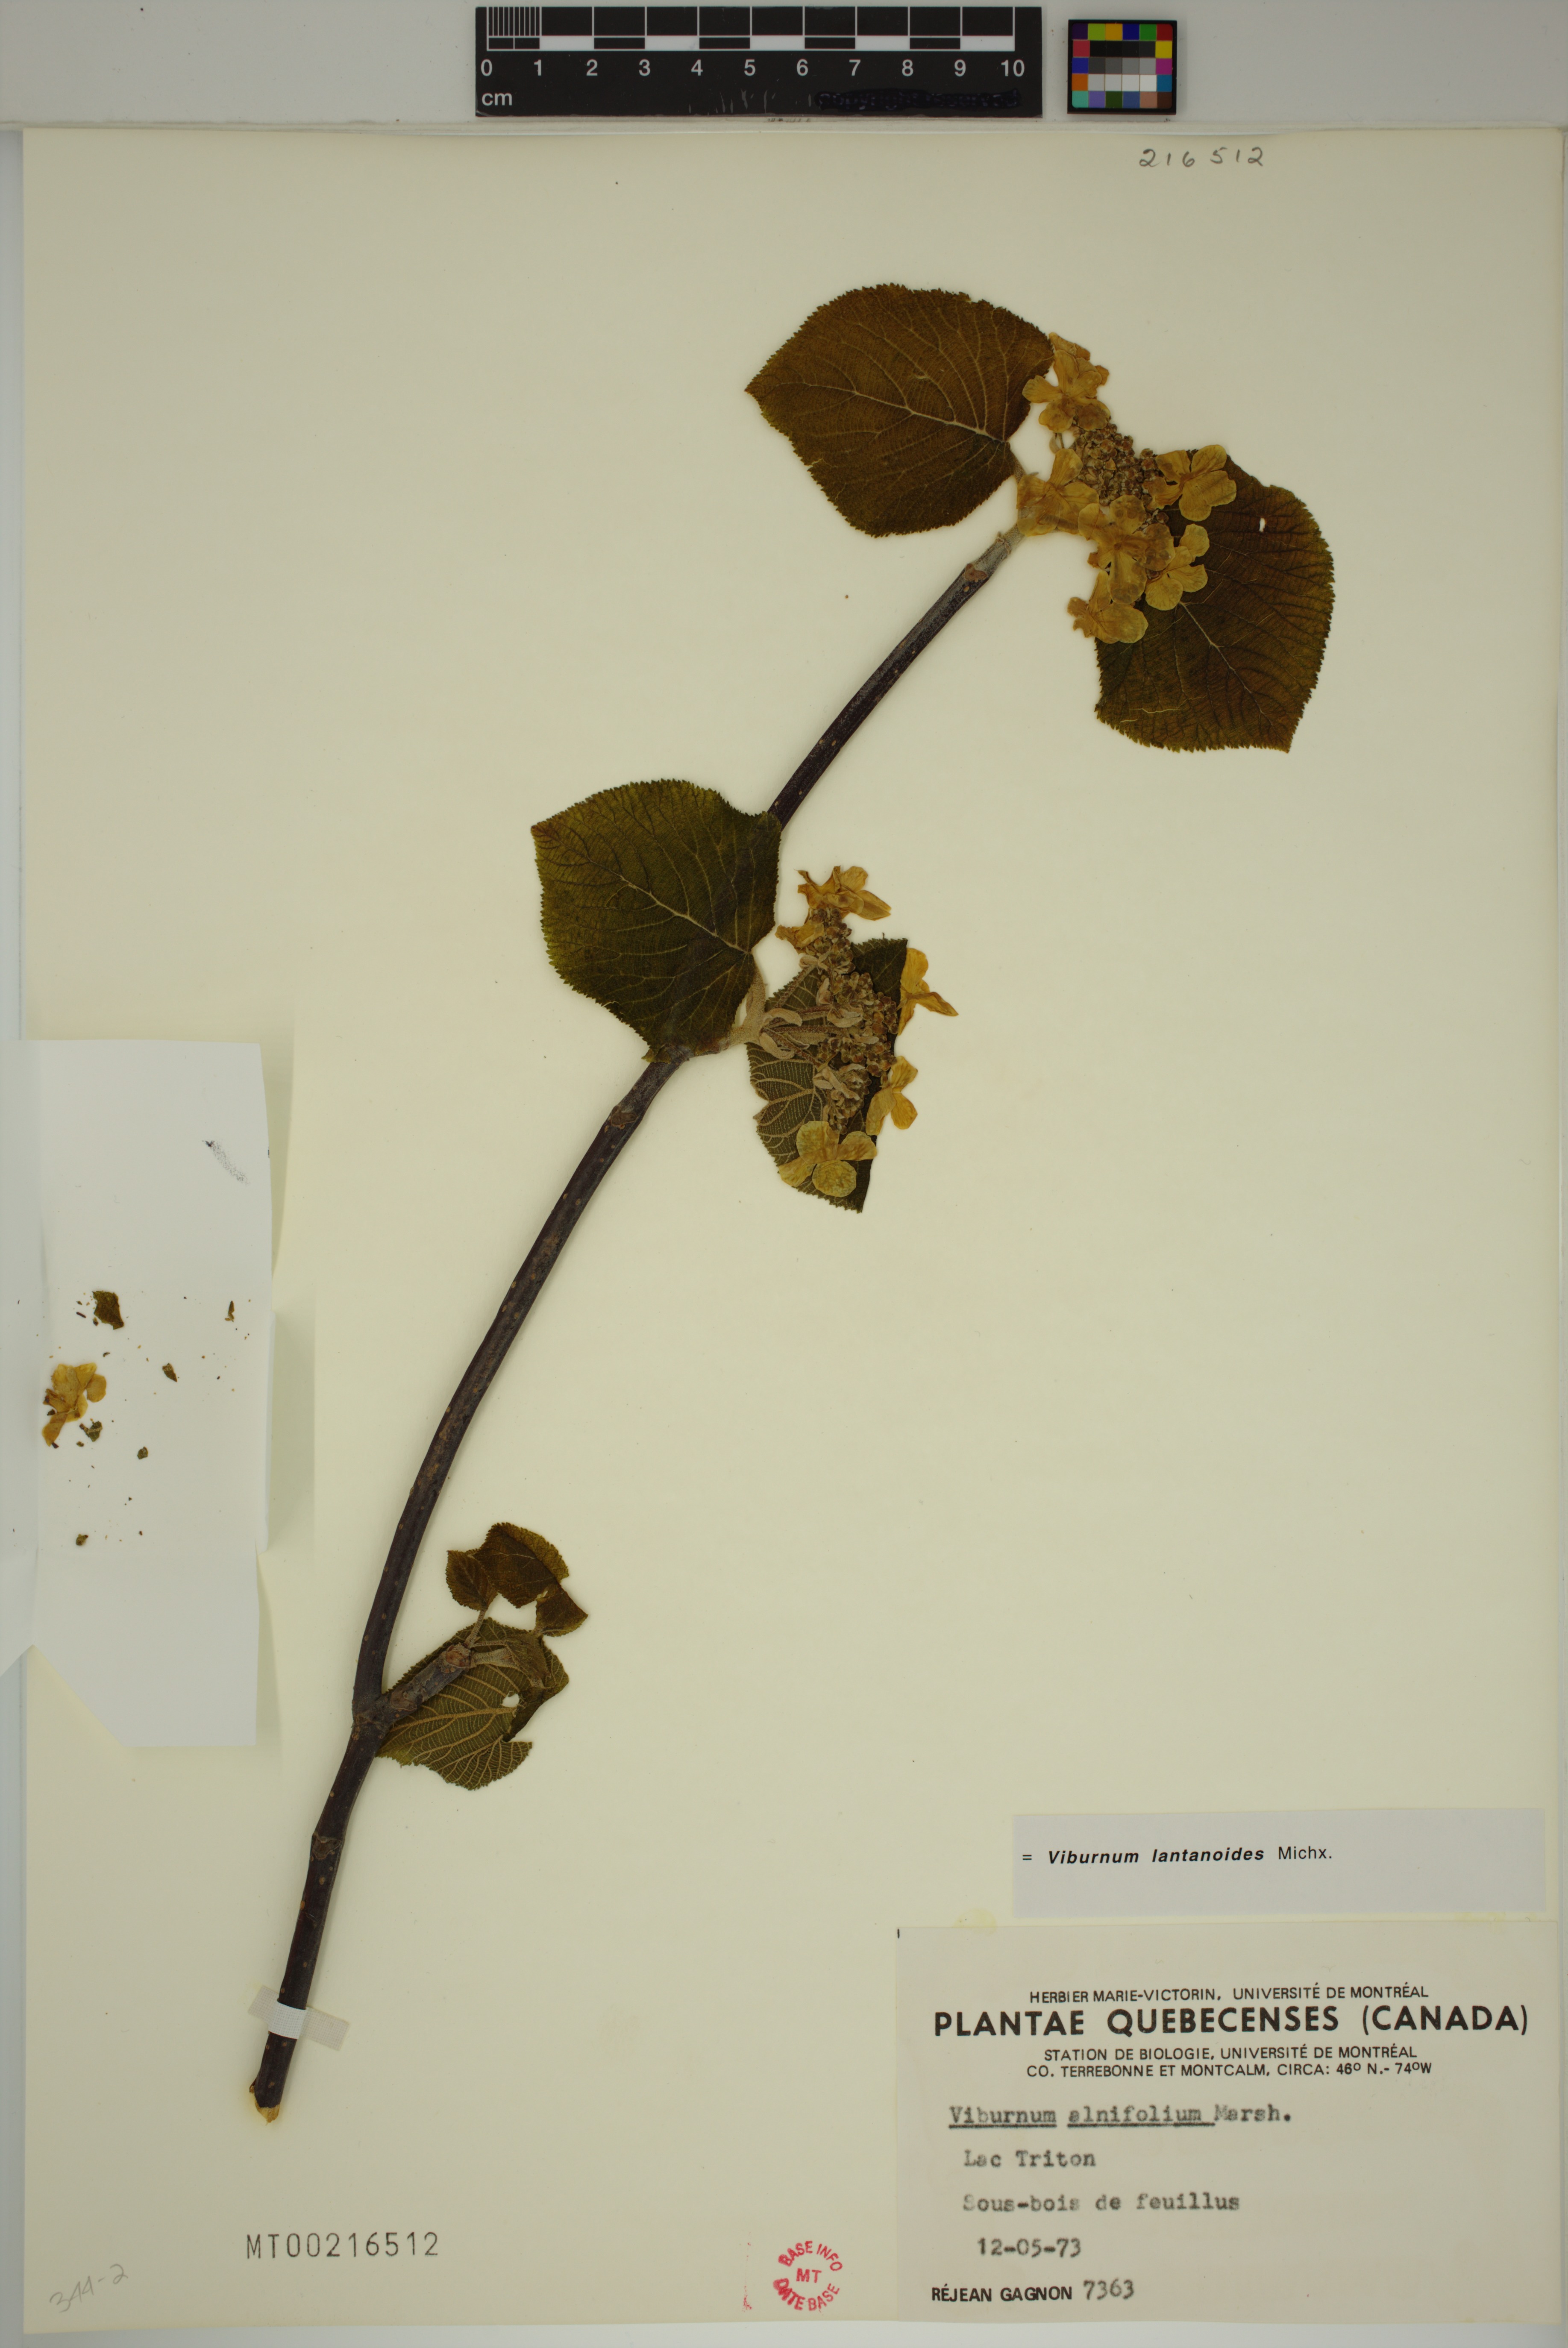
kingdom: Plantae
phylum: Tracheophyta
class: Magnoliopsida
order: Dipsacales
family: Viburnaceae
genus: Viburnum
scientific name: Viburnum lantanoides
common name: Hobblebush
